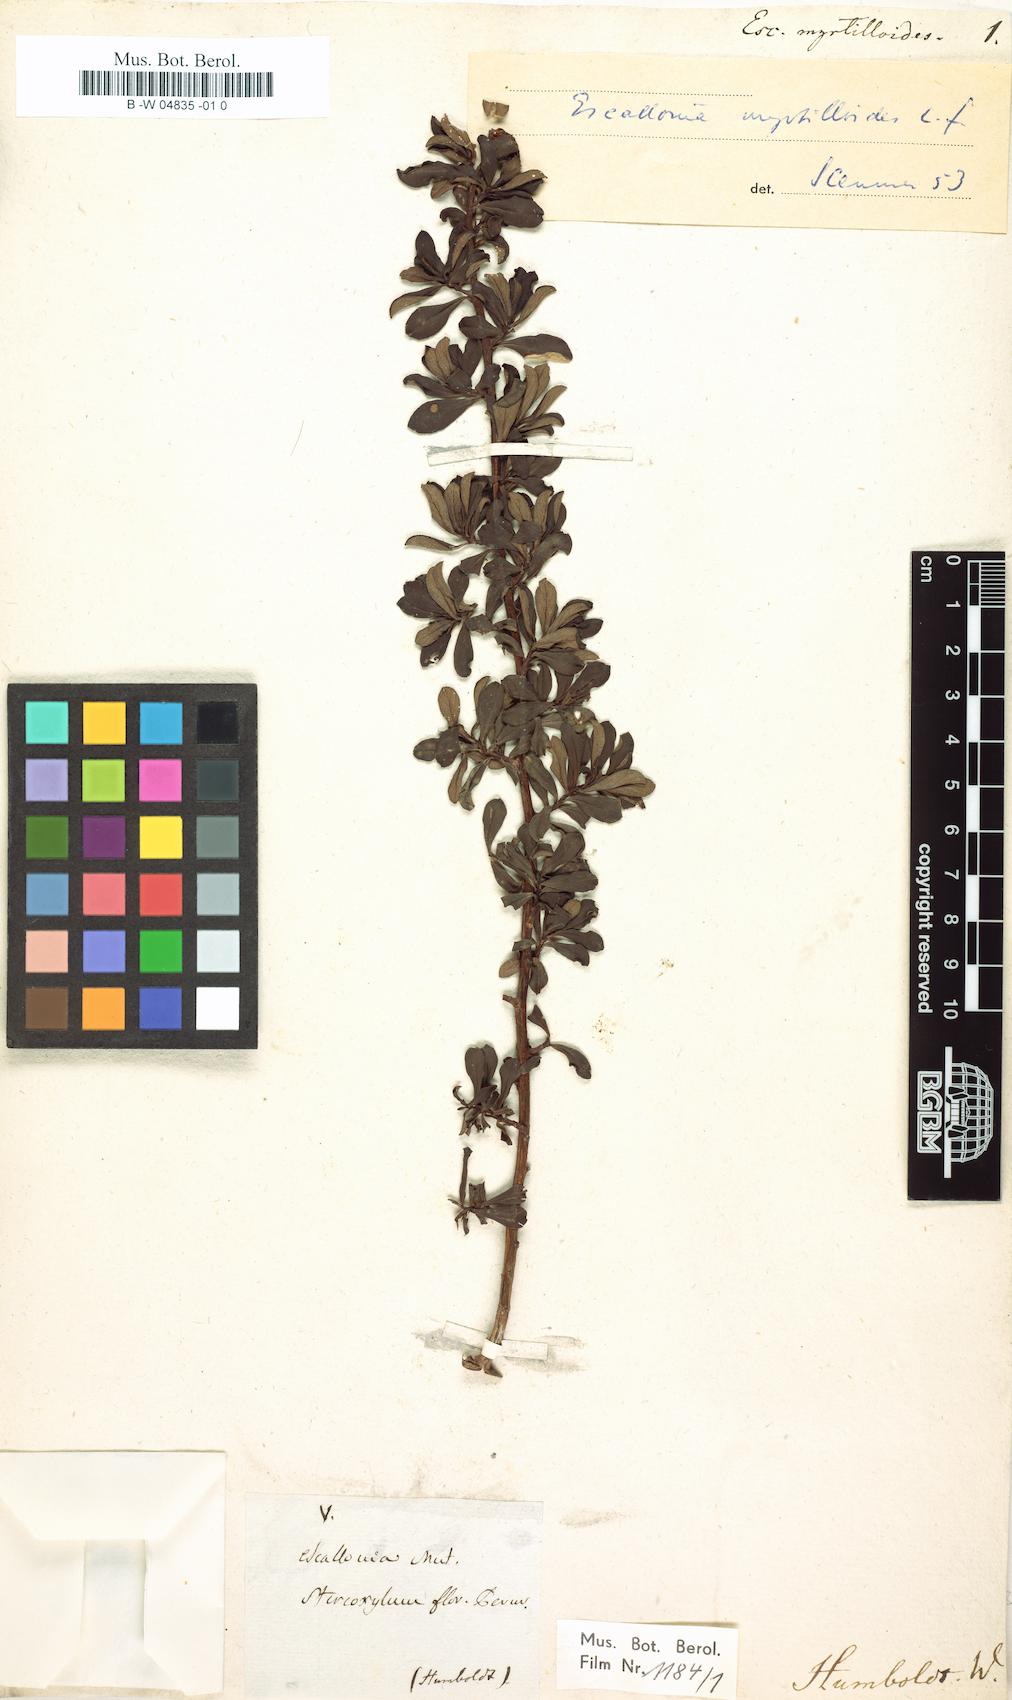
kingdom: Plantae
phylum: Tracheophyta
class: Magnoliopsida
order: Escalloniales
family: Escalloniaceae
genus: Escallonia
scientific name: Escallonia myrtilloides
